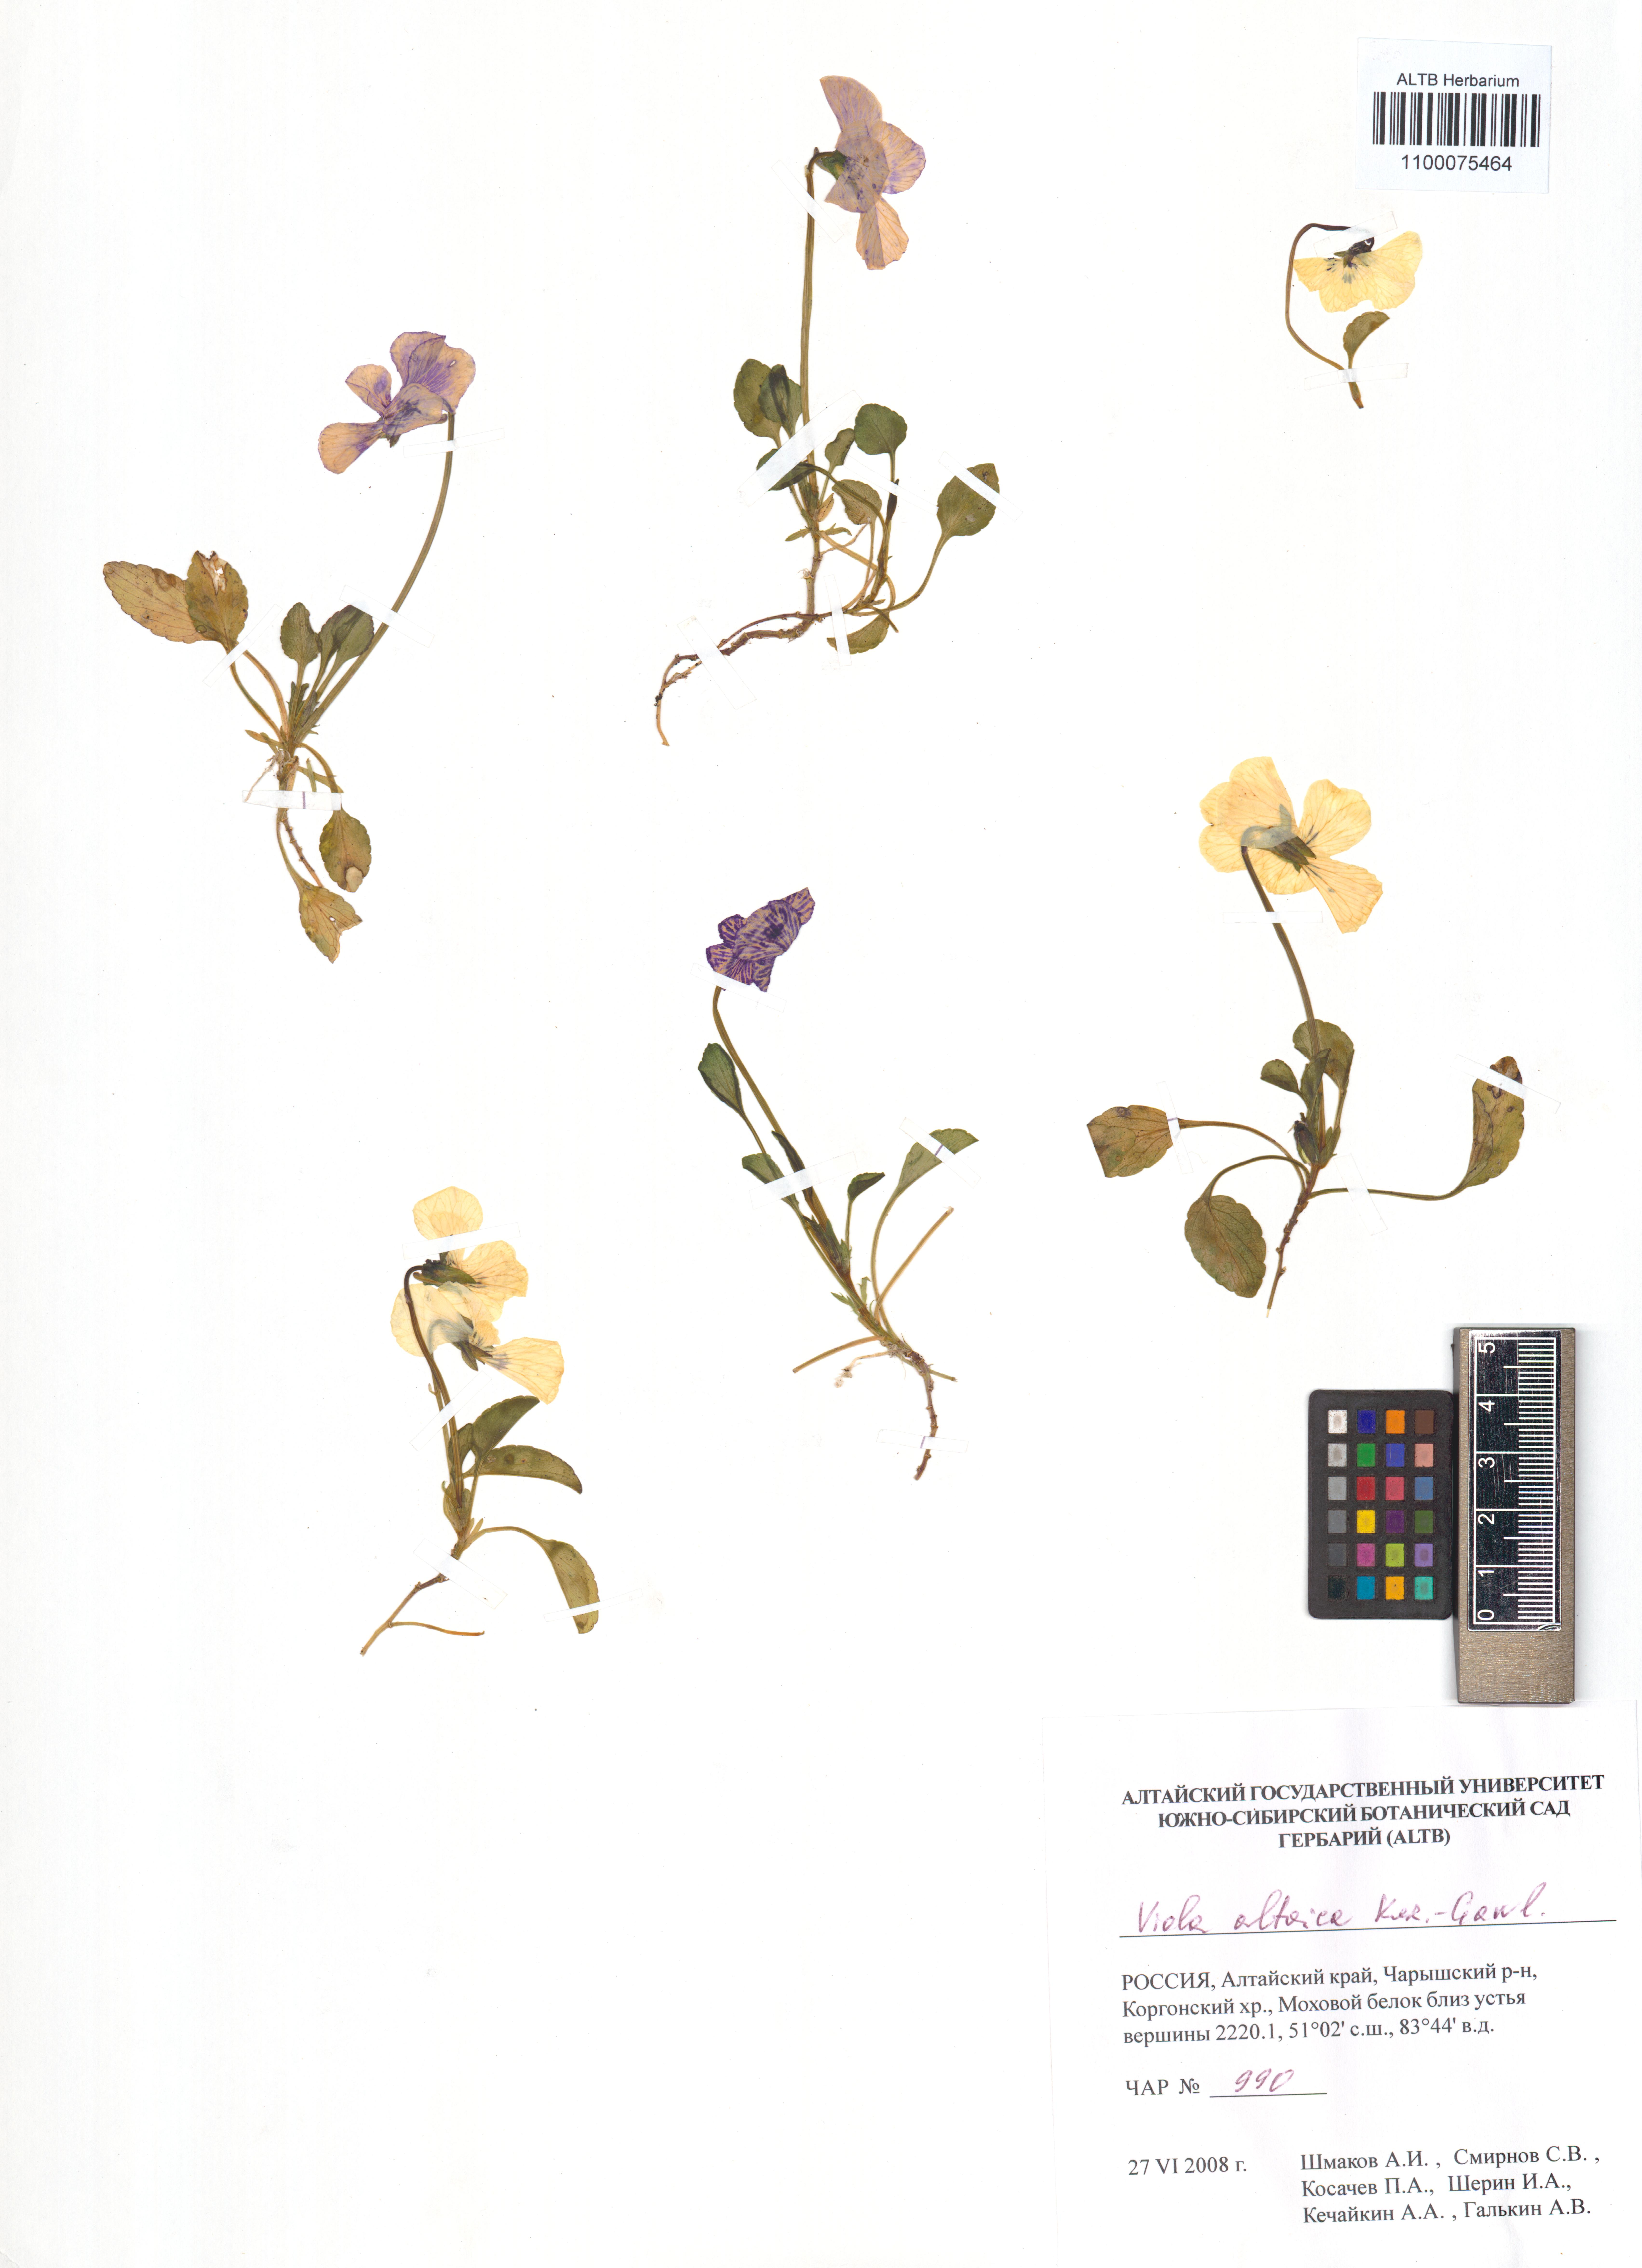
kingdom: Plantae
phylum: Tracheophyta
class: Magnoliopsida
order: Malpighiales
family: Violaceae
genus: Viola
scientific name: Viola altaica
